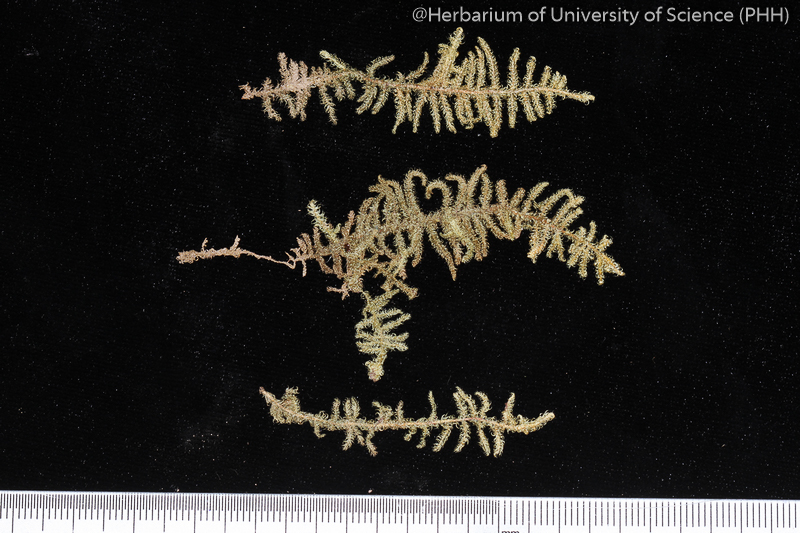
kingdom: Plantae
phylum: Bryophyta
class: Bryopsida
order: Hypnales
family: Hypnaceae
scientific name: Hypnaceae
